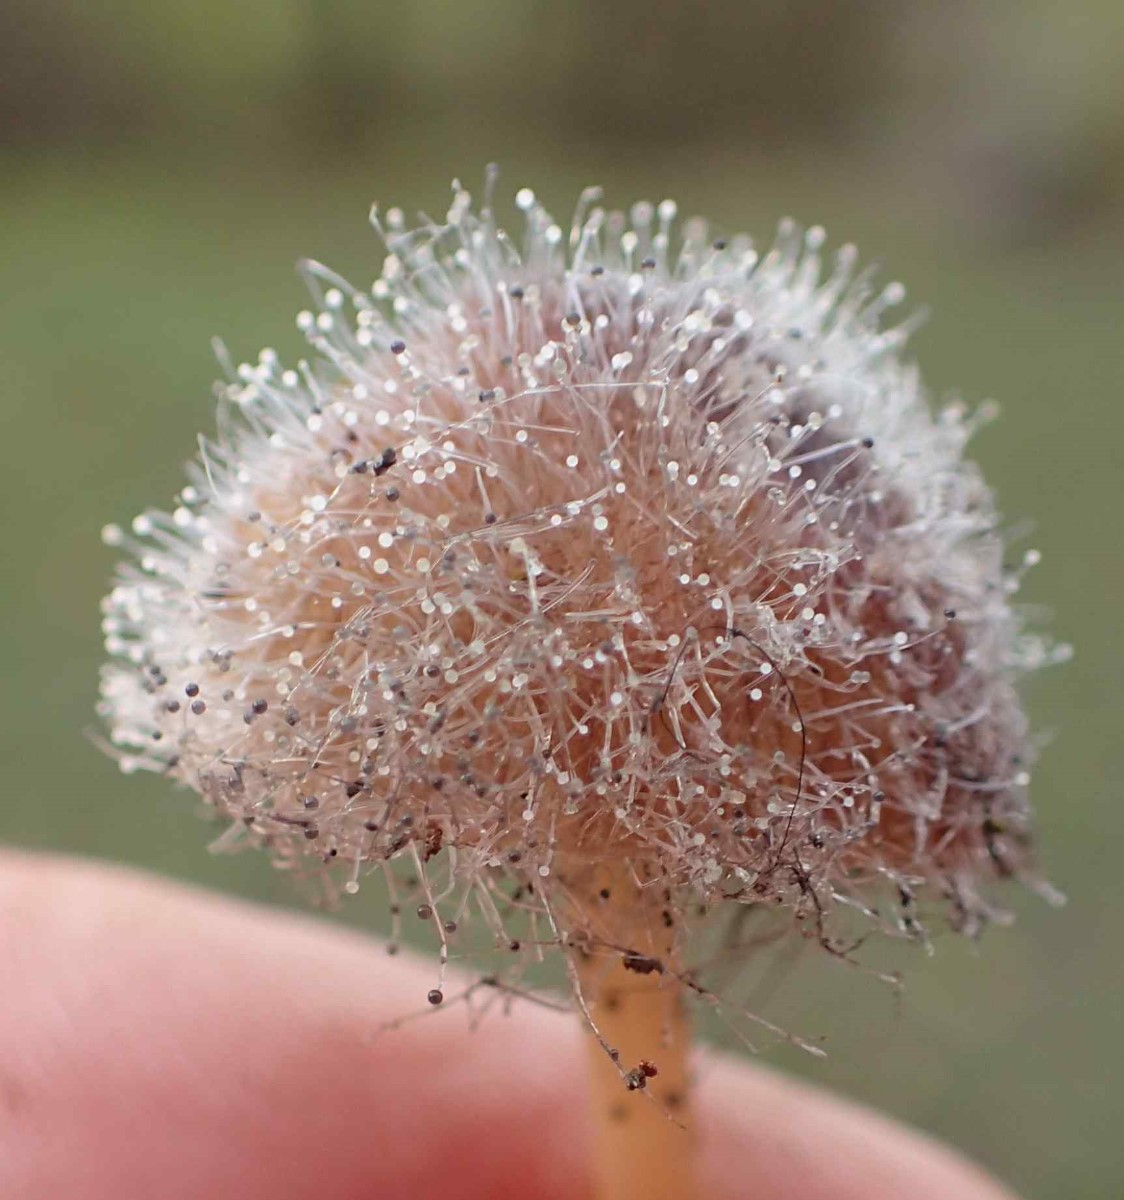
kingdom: Fungi
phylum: Mucoromycota
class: Mucoromycetes
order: Mucorales
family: Phycomycetaceae
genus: Spinellus
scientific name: Spinellus fusiger
